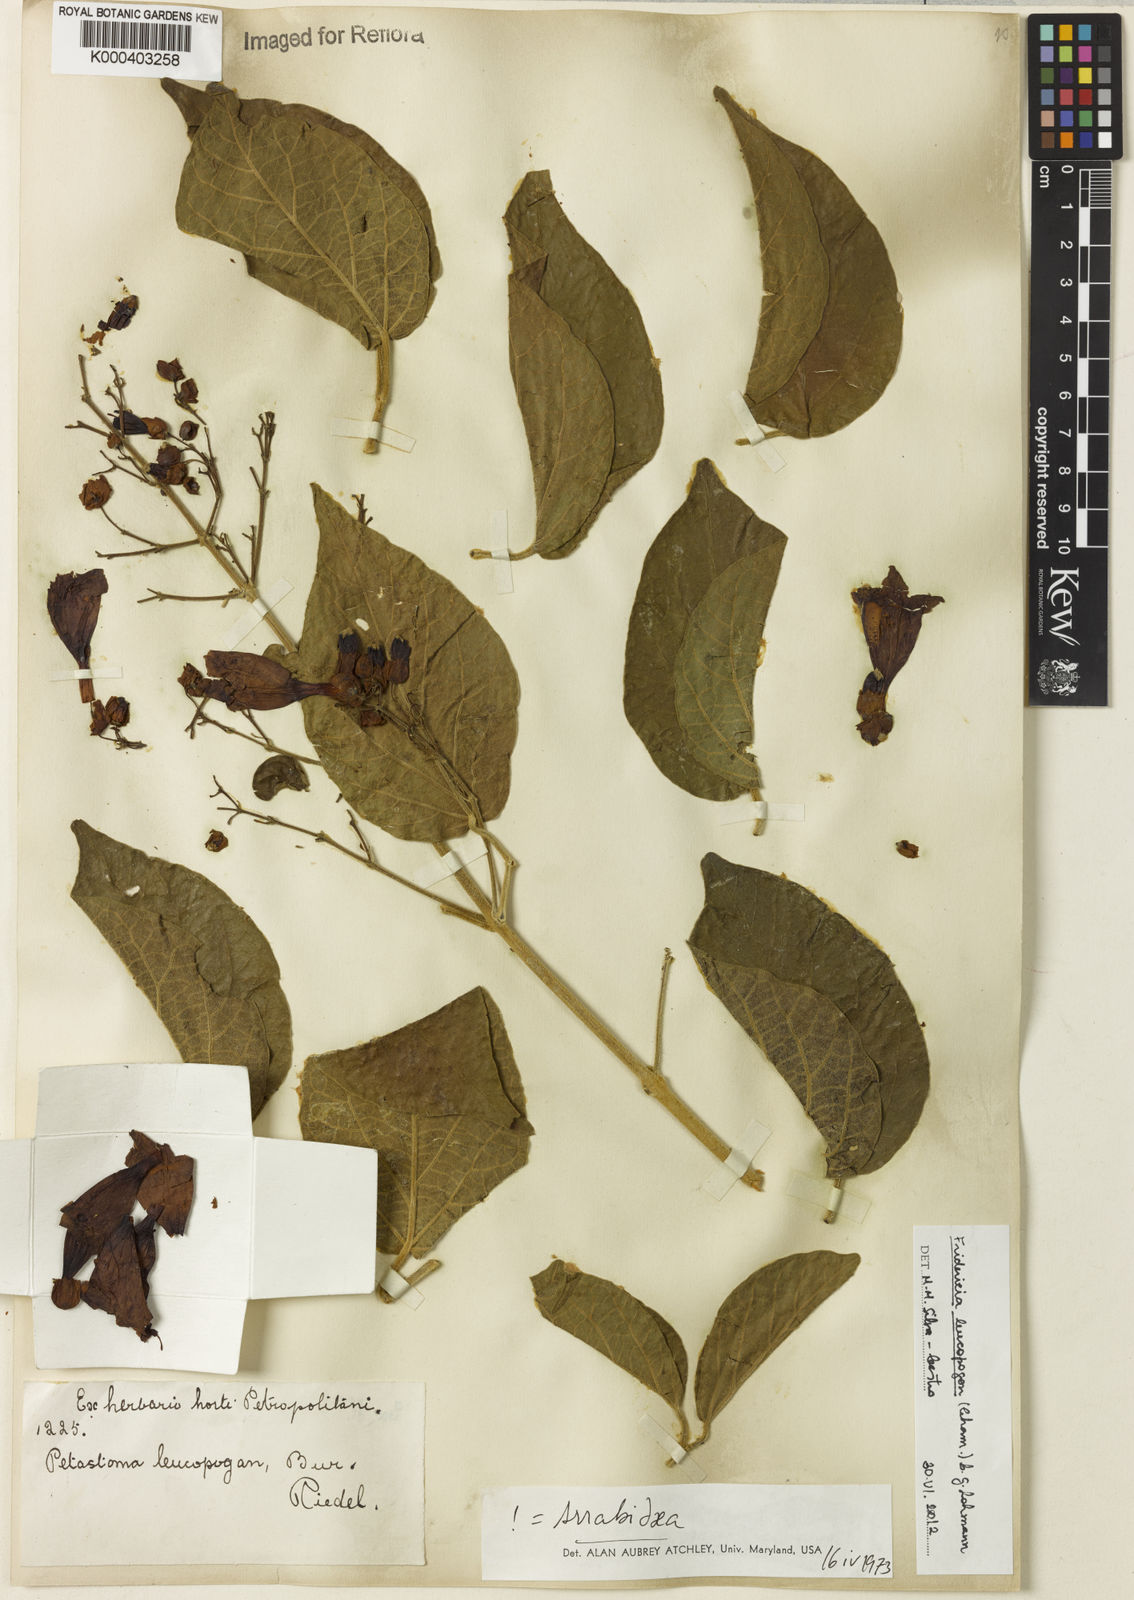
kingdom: Plantae
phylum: Tracheophyta
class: Magnoliopsida
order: Lamiales
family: Bignoniaceae
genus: Fridericia
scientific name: Fridericia leucopogon
